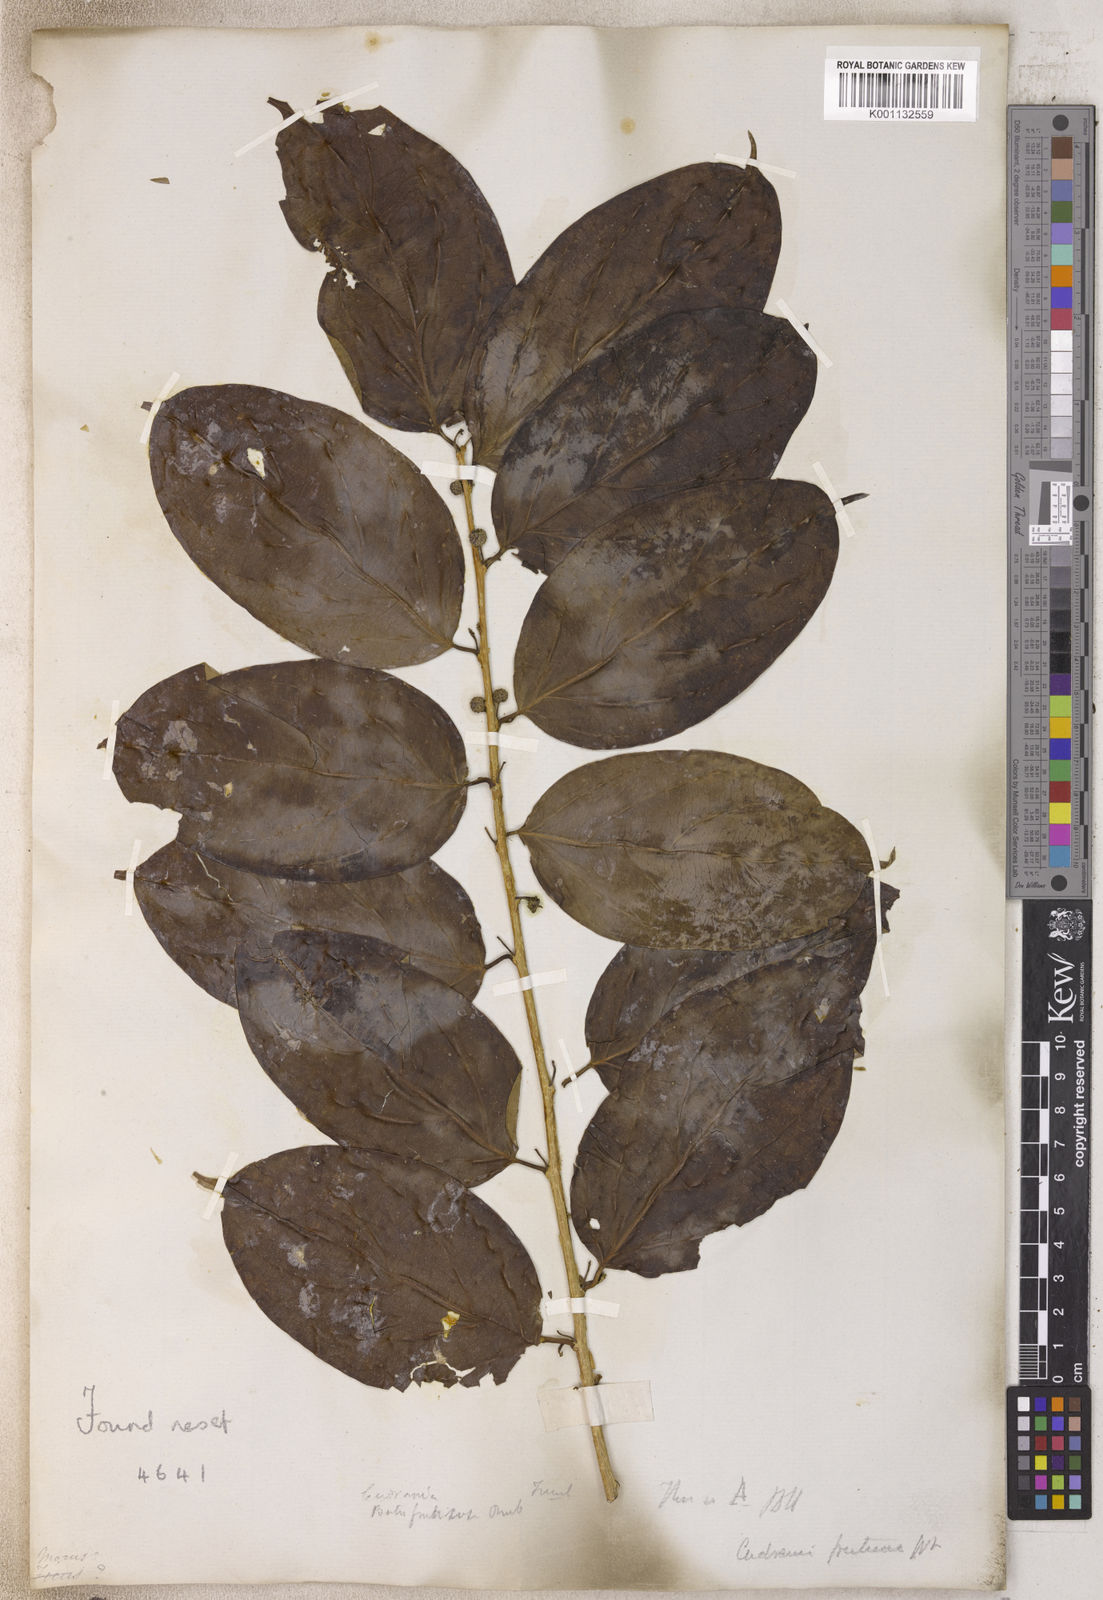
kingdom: Plantae
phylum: Tracheophyta
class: Magnoliopsida
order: Rosales
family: Moraceae
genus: Maclura
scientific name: Maclura
